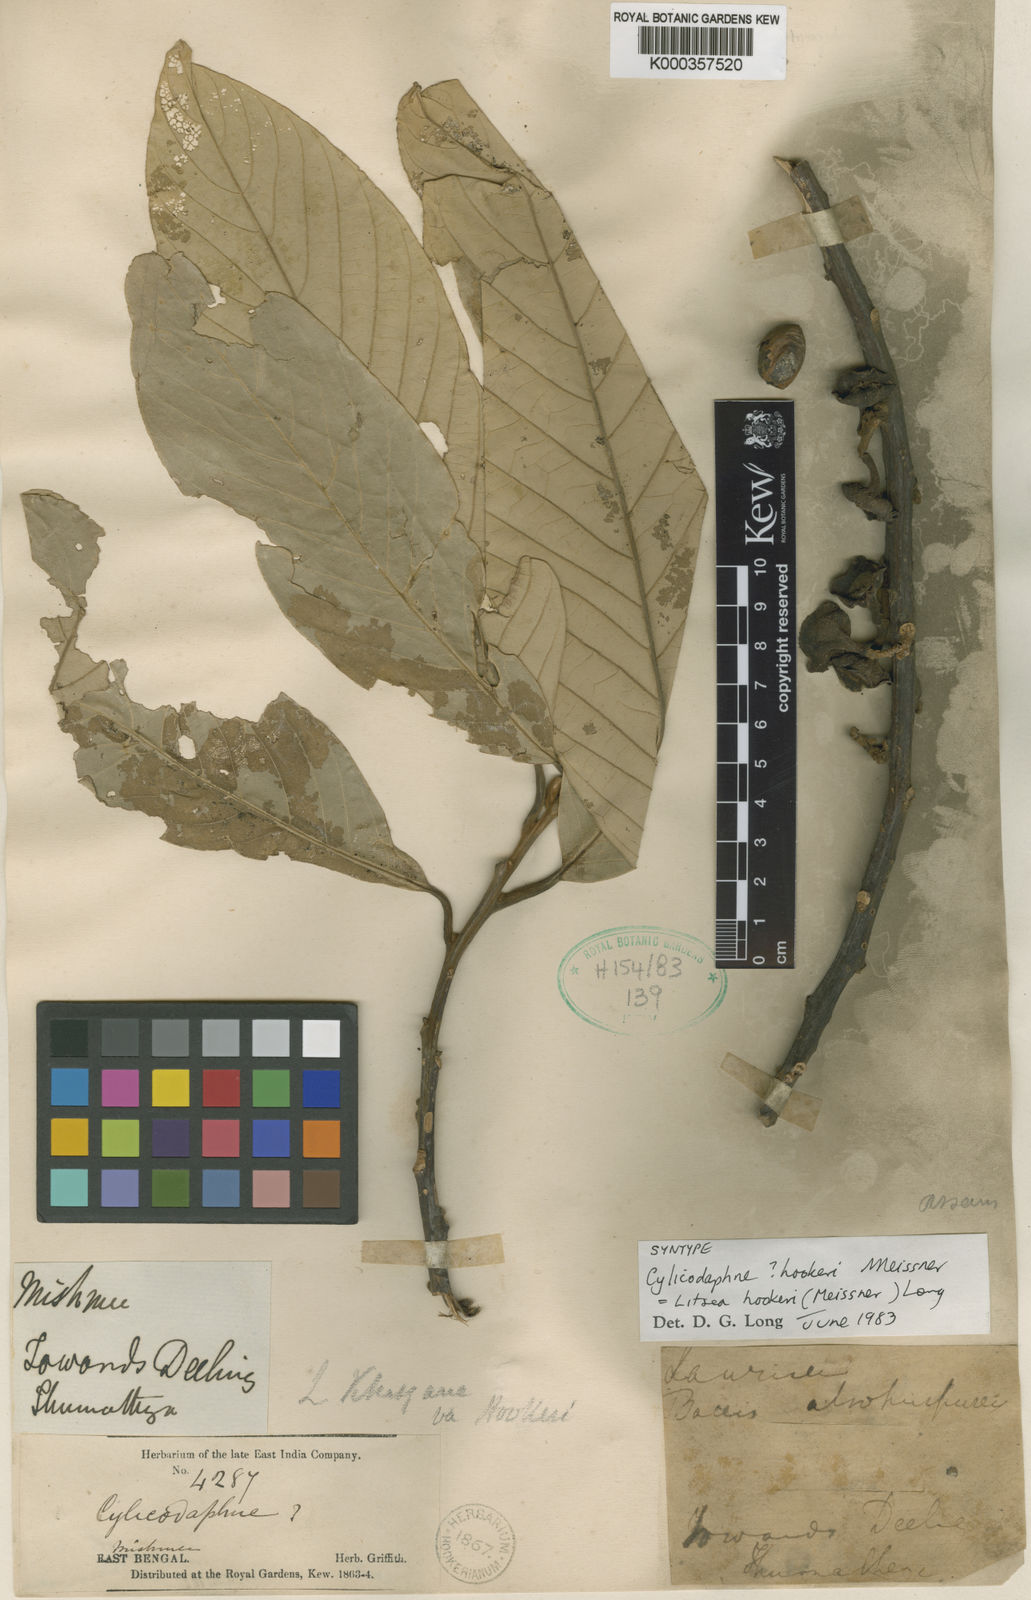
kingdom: Plantae
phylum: Tracheophyta
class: Magnoliopsida
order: Laurales
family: Lauraceae
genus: Litsea
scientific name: Litsea khasyana
